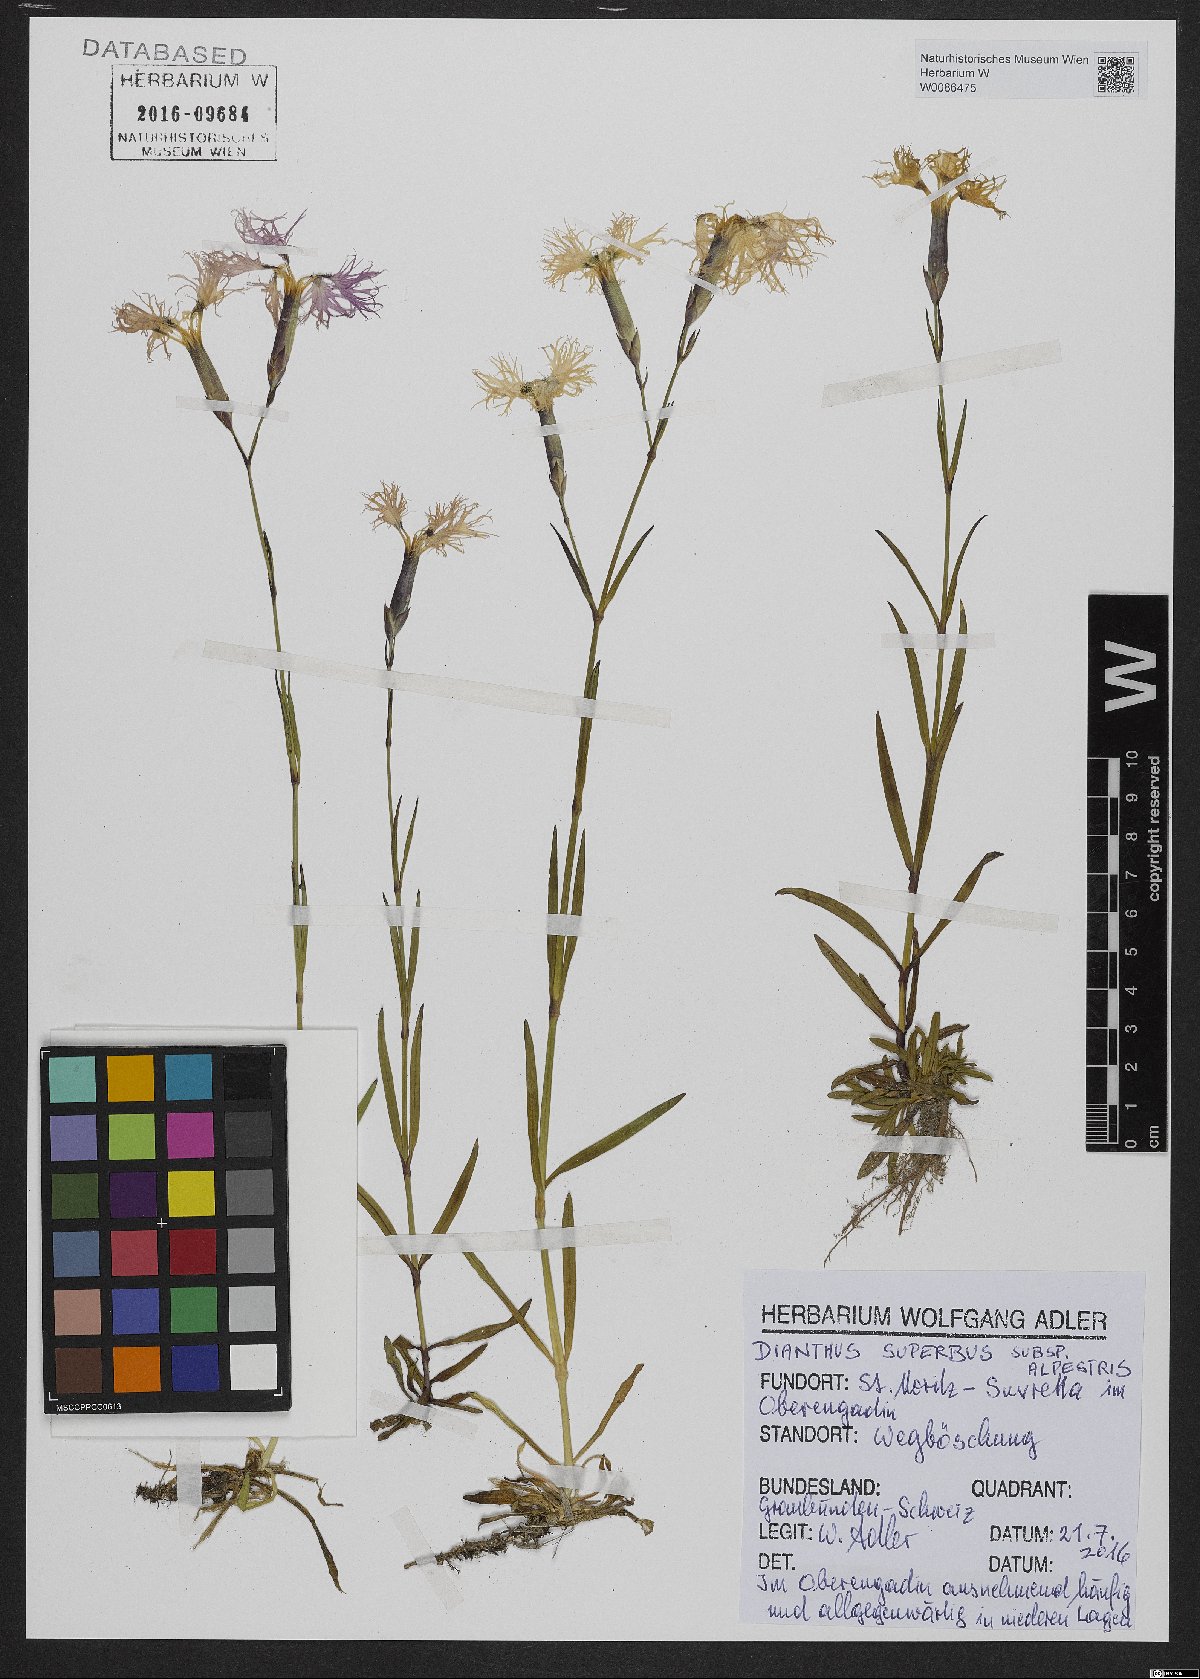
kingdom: Plantae
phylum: Tracheophyta
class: Magnoliopsida
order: Caryophyllales
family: Caryophyllaceae
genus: Dianthus
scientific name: Dianthus superbus
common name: Fringed pink
